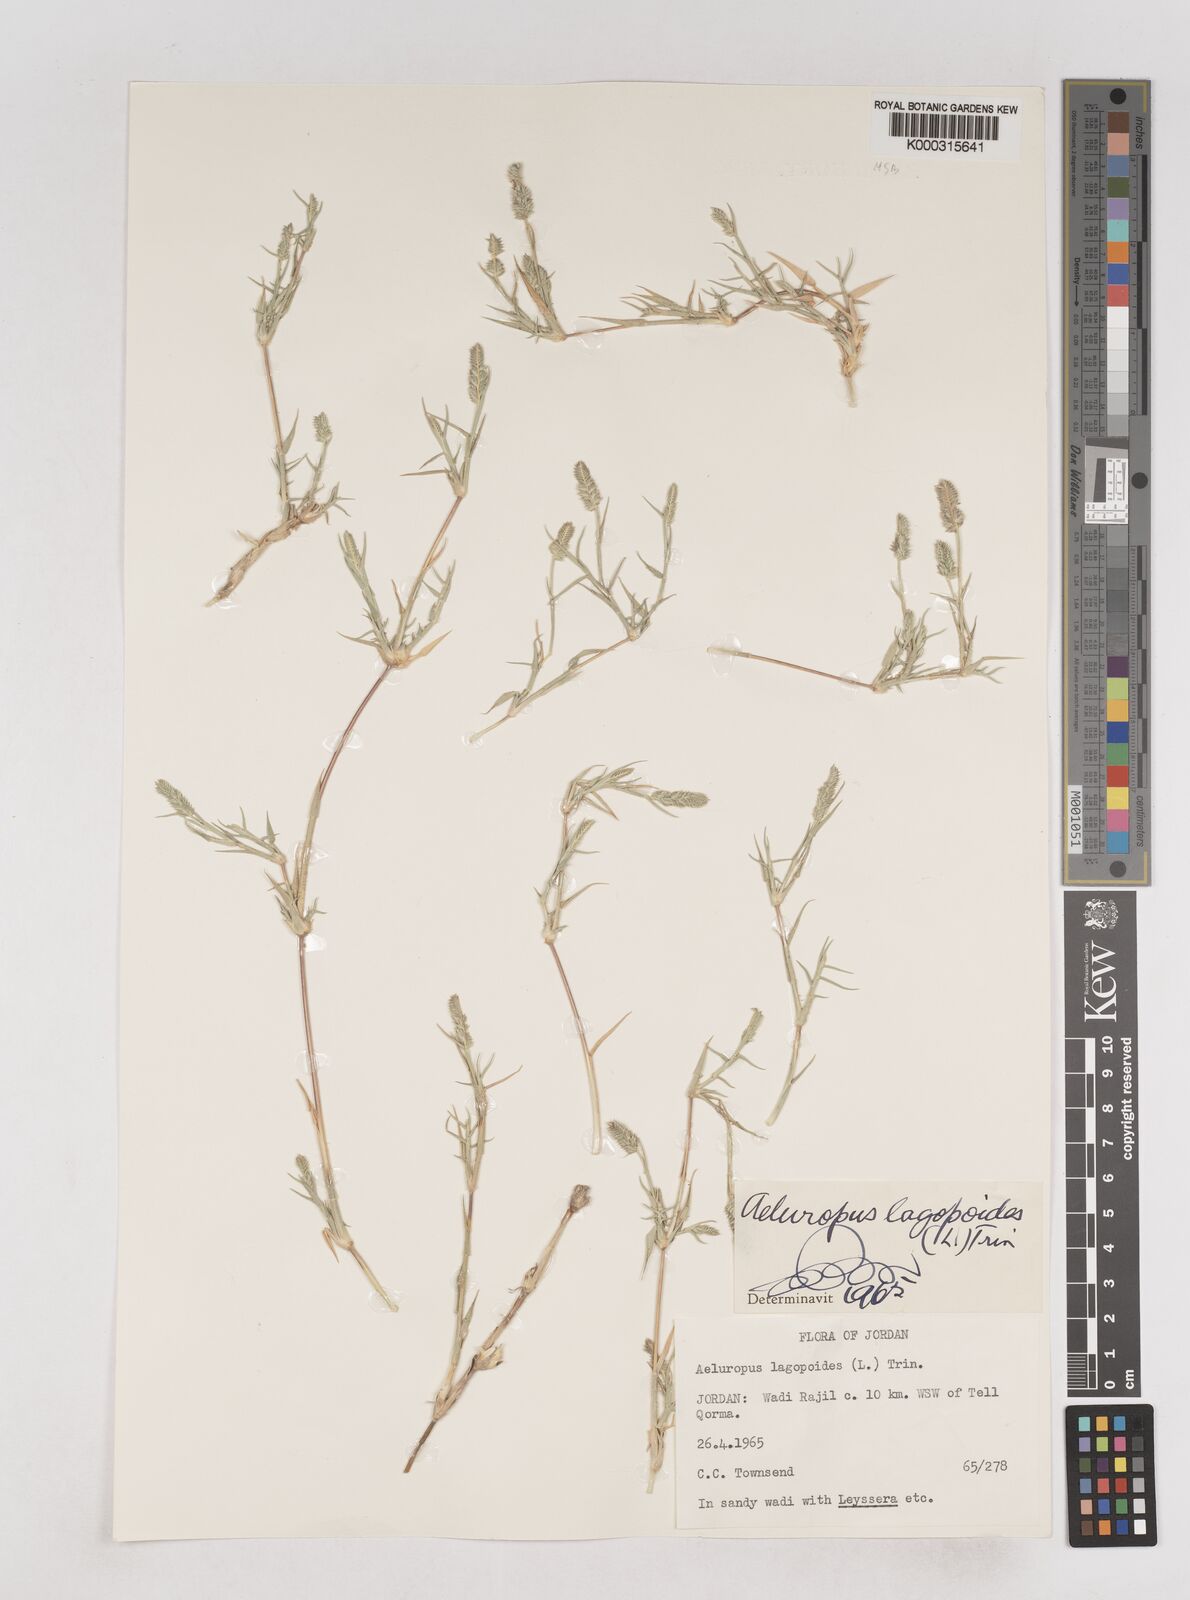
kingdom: Plantae
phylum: Tracheophyta
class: Liliopsida
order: Poales
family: Poaceae
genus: Aeluropus
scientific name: Aeluropus lagopoides
